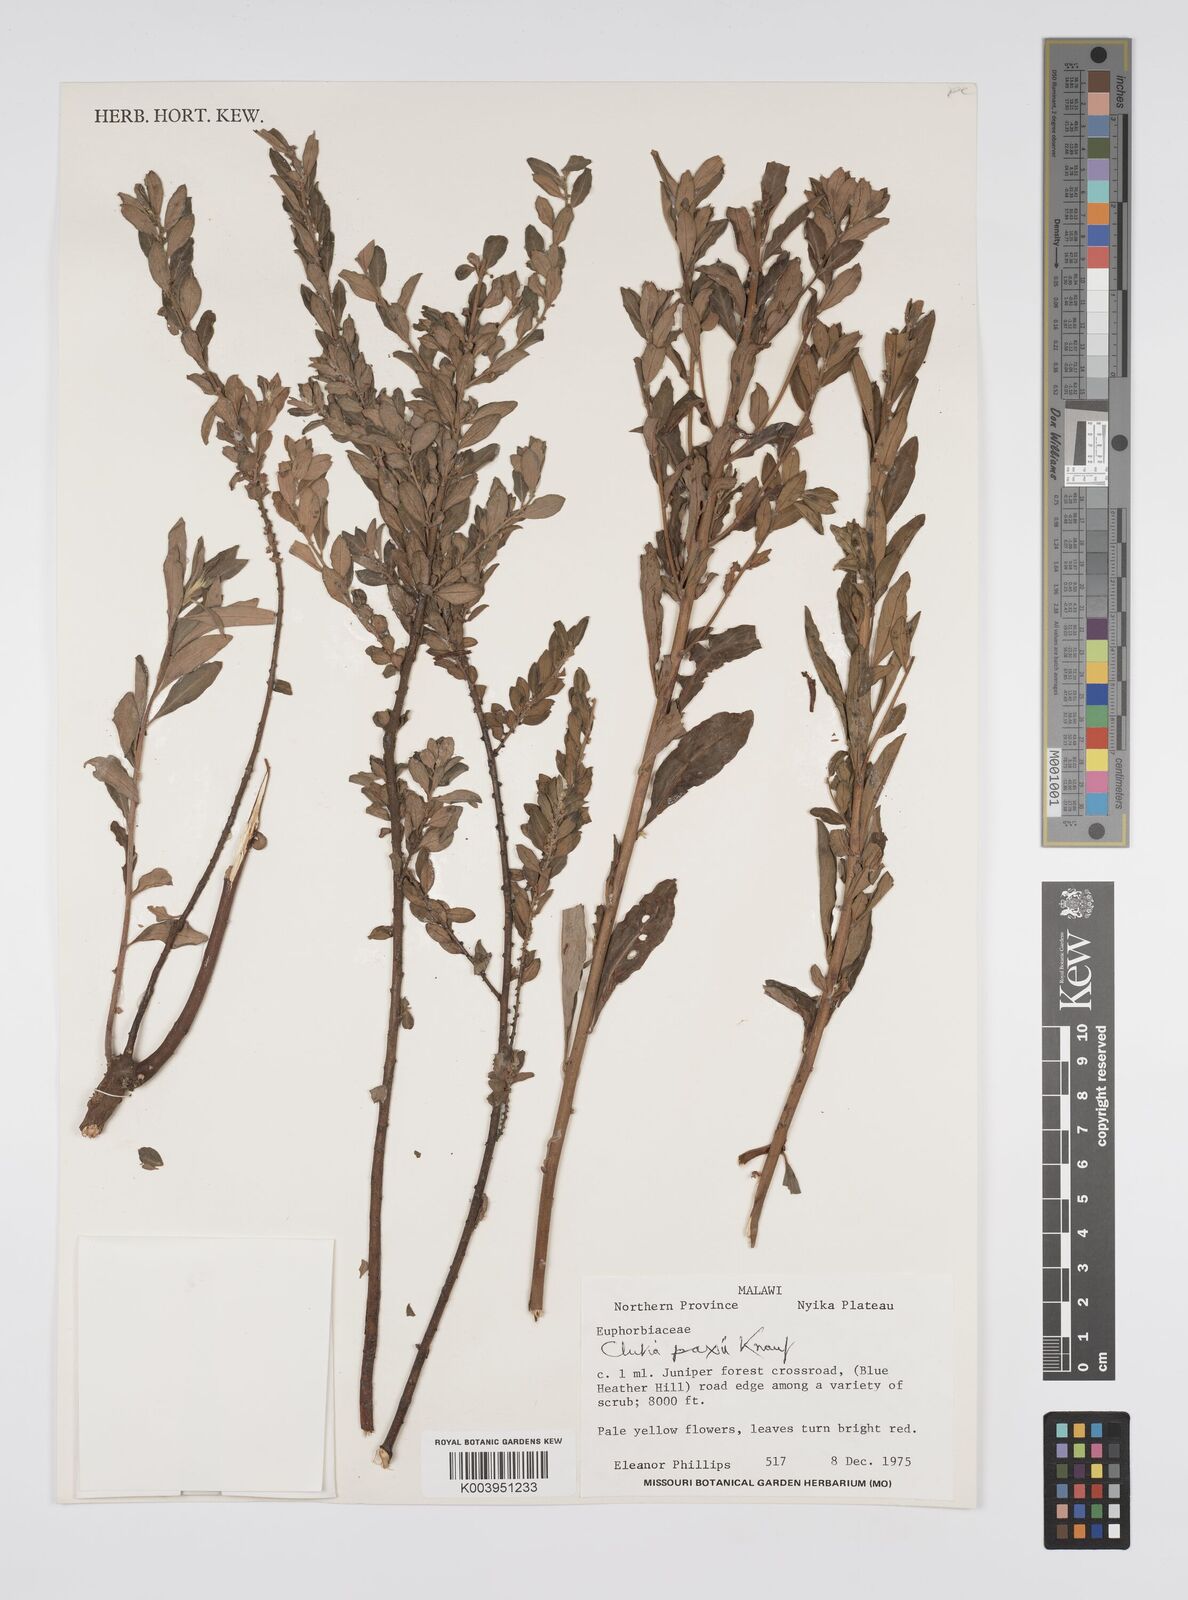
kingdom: Plantae
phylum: Tracheophyta
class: Magnoliopsida
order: Malpighiales
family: Peraceae
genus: Clutia
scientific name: Clutia paxii
